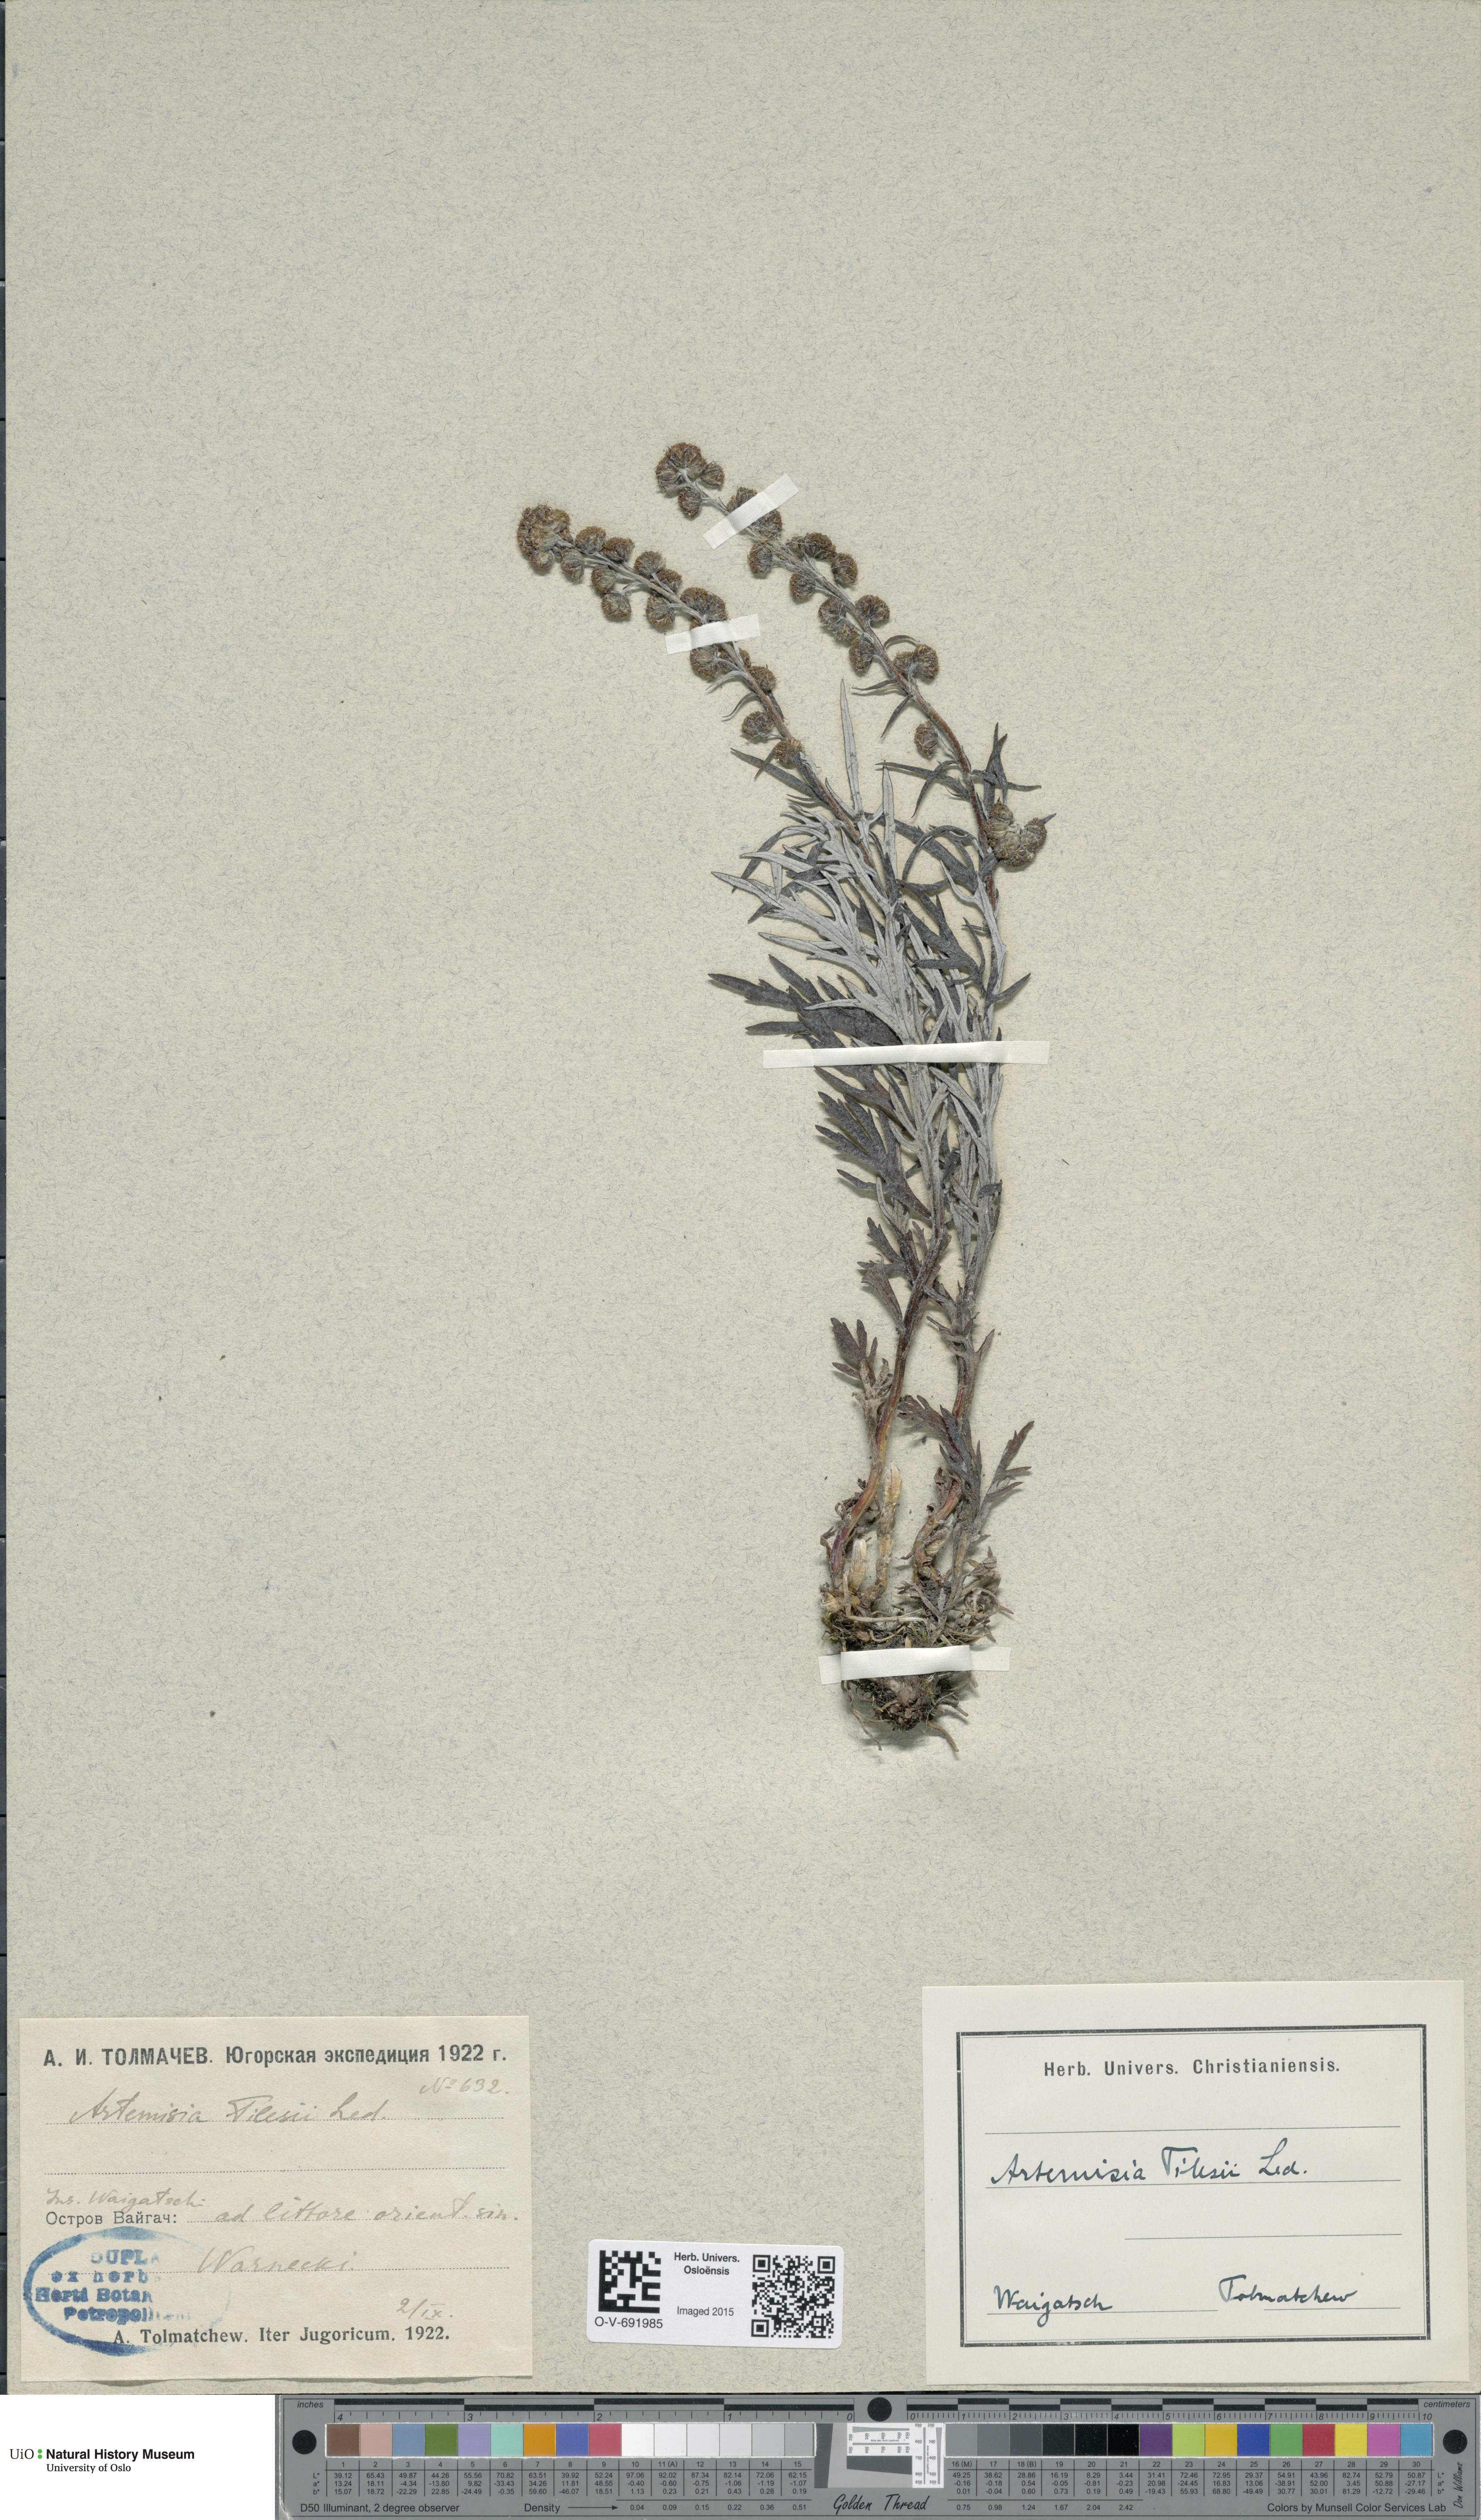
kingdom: Plantae
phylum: Tracheophyta
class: Magnoliopsida
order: Asterales
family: Asteraceae
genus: Artemisia
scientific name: Artemisia tilesii
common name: Aleutian mugwort
